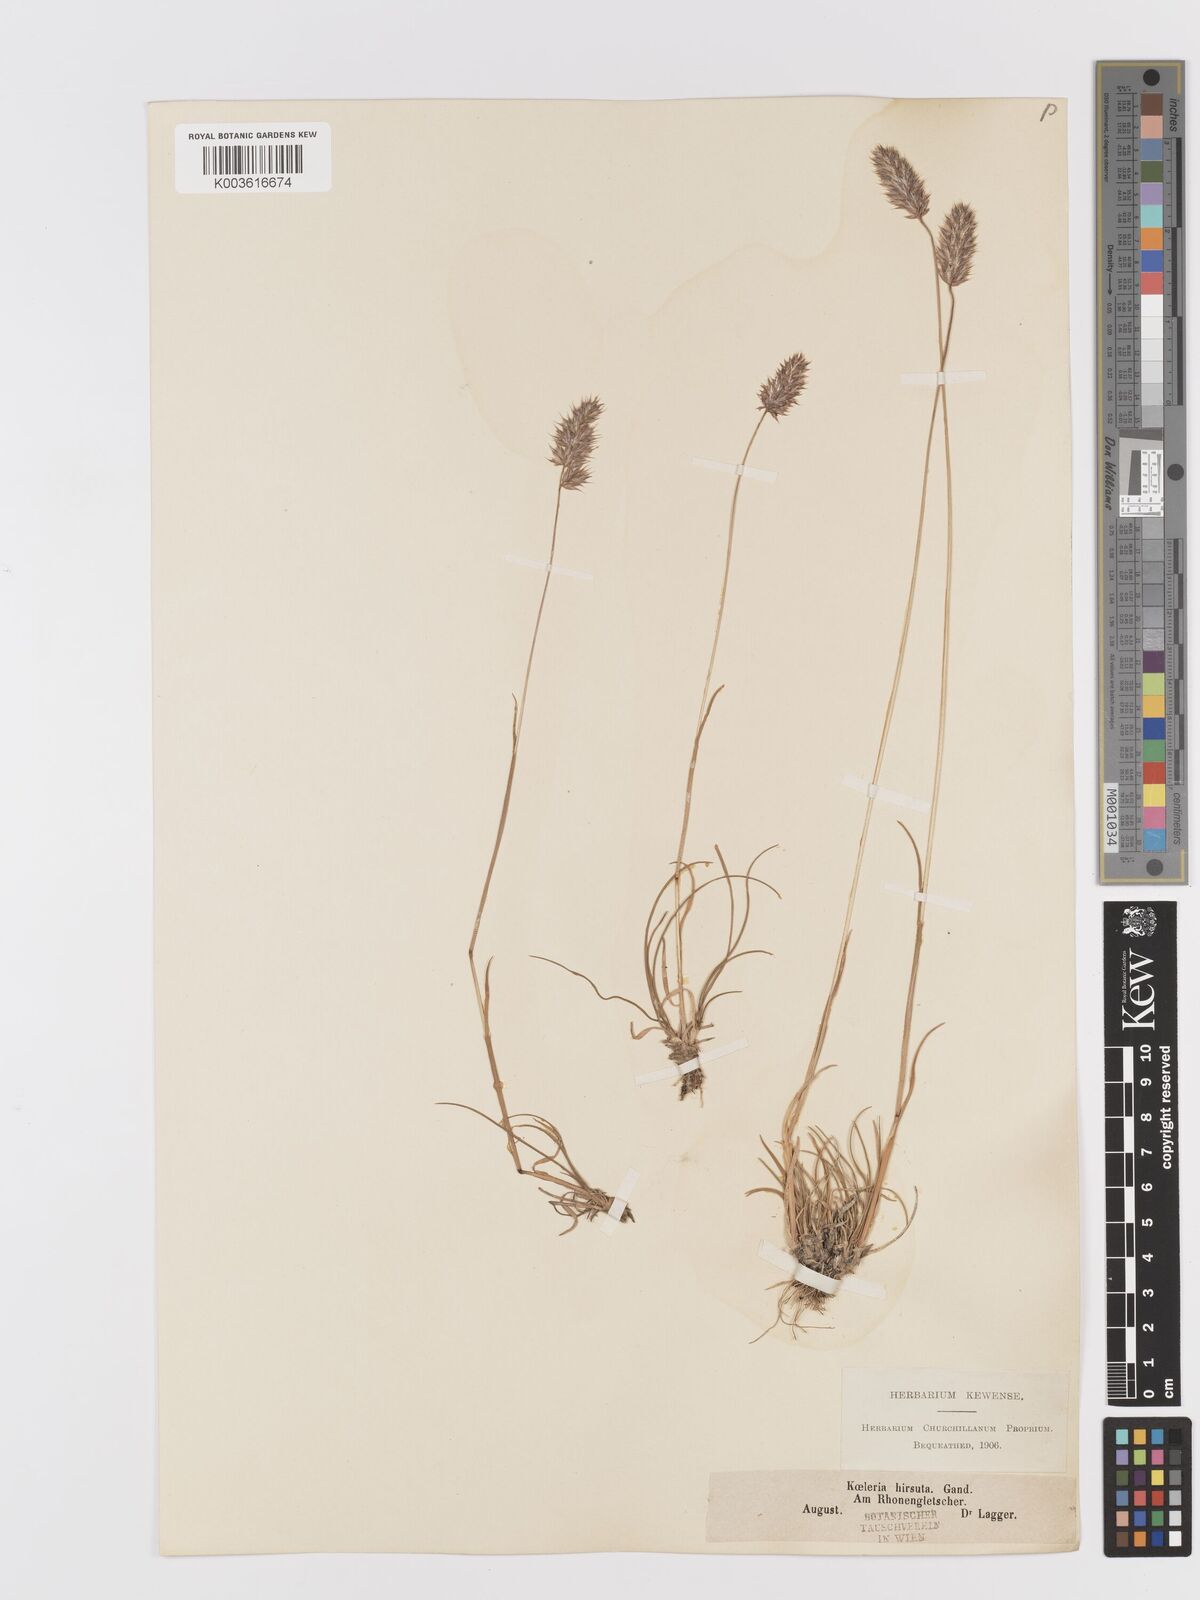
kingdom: Plantae
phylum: Tracheophyta
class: Liliopsida
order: Poales
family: Poaceae
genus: Koeleria
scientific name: Koeleria hirsuta
